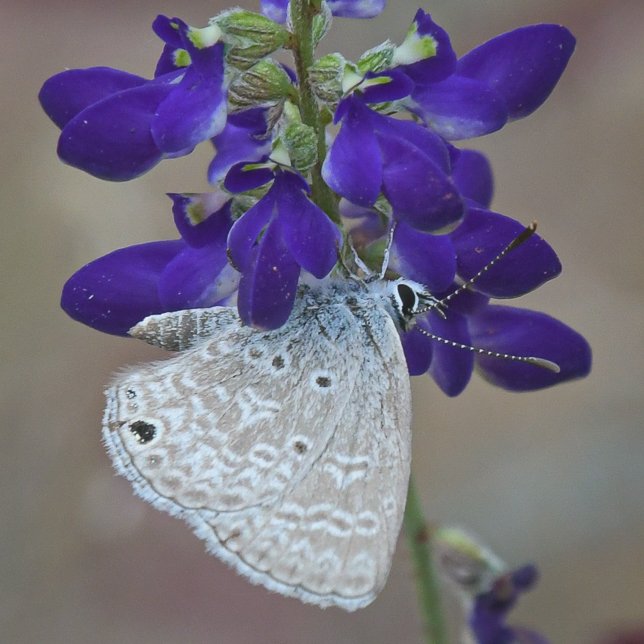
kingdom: Animalia
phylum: Arthropoda
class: Insecta
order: Lepidoptera
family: Lycaenidae
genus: Hemiargus
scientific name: Hemiargus ceraunus
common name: Ceraunus Blue
